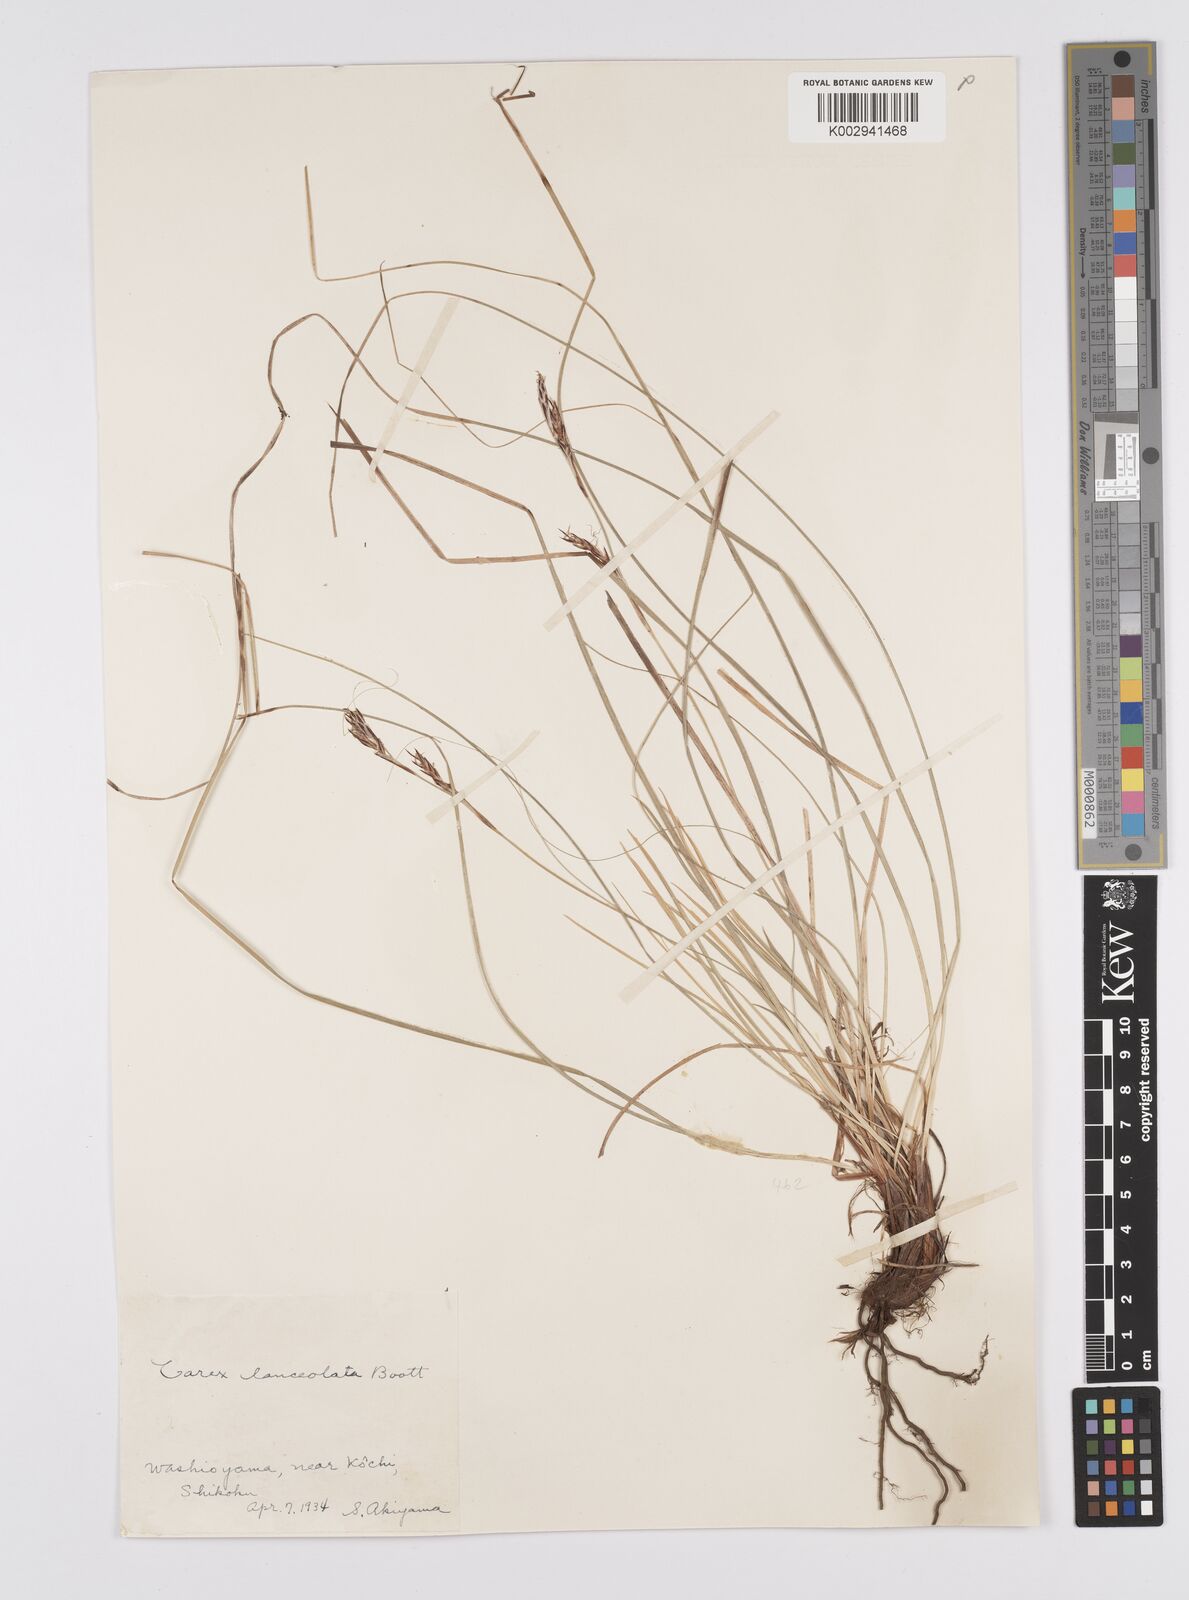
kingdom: Plantae
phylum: Tracheophyta
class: Liliopsida
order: Poales
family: Cyperaceae
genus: Carex
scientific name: Carex lanceolata
